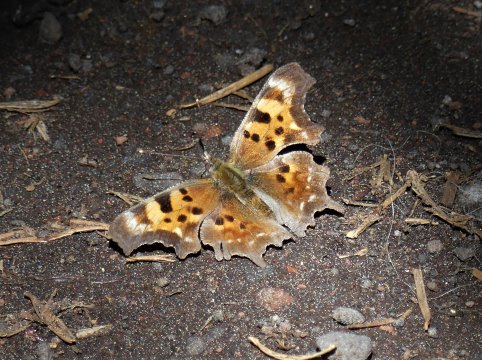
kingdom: Animalia
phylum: Arthropoda
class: Insecta
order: Lepidoptera
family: Nymphalidae
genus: Polygonia
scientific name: Polygonia faunus
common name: Green Comma
